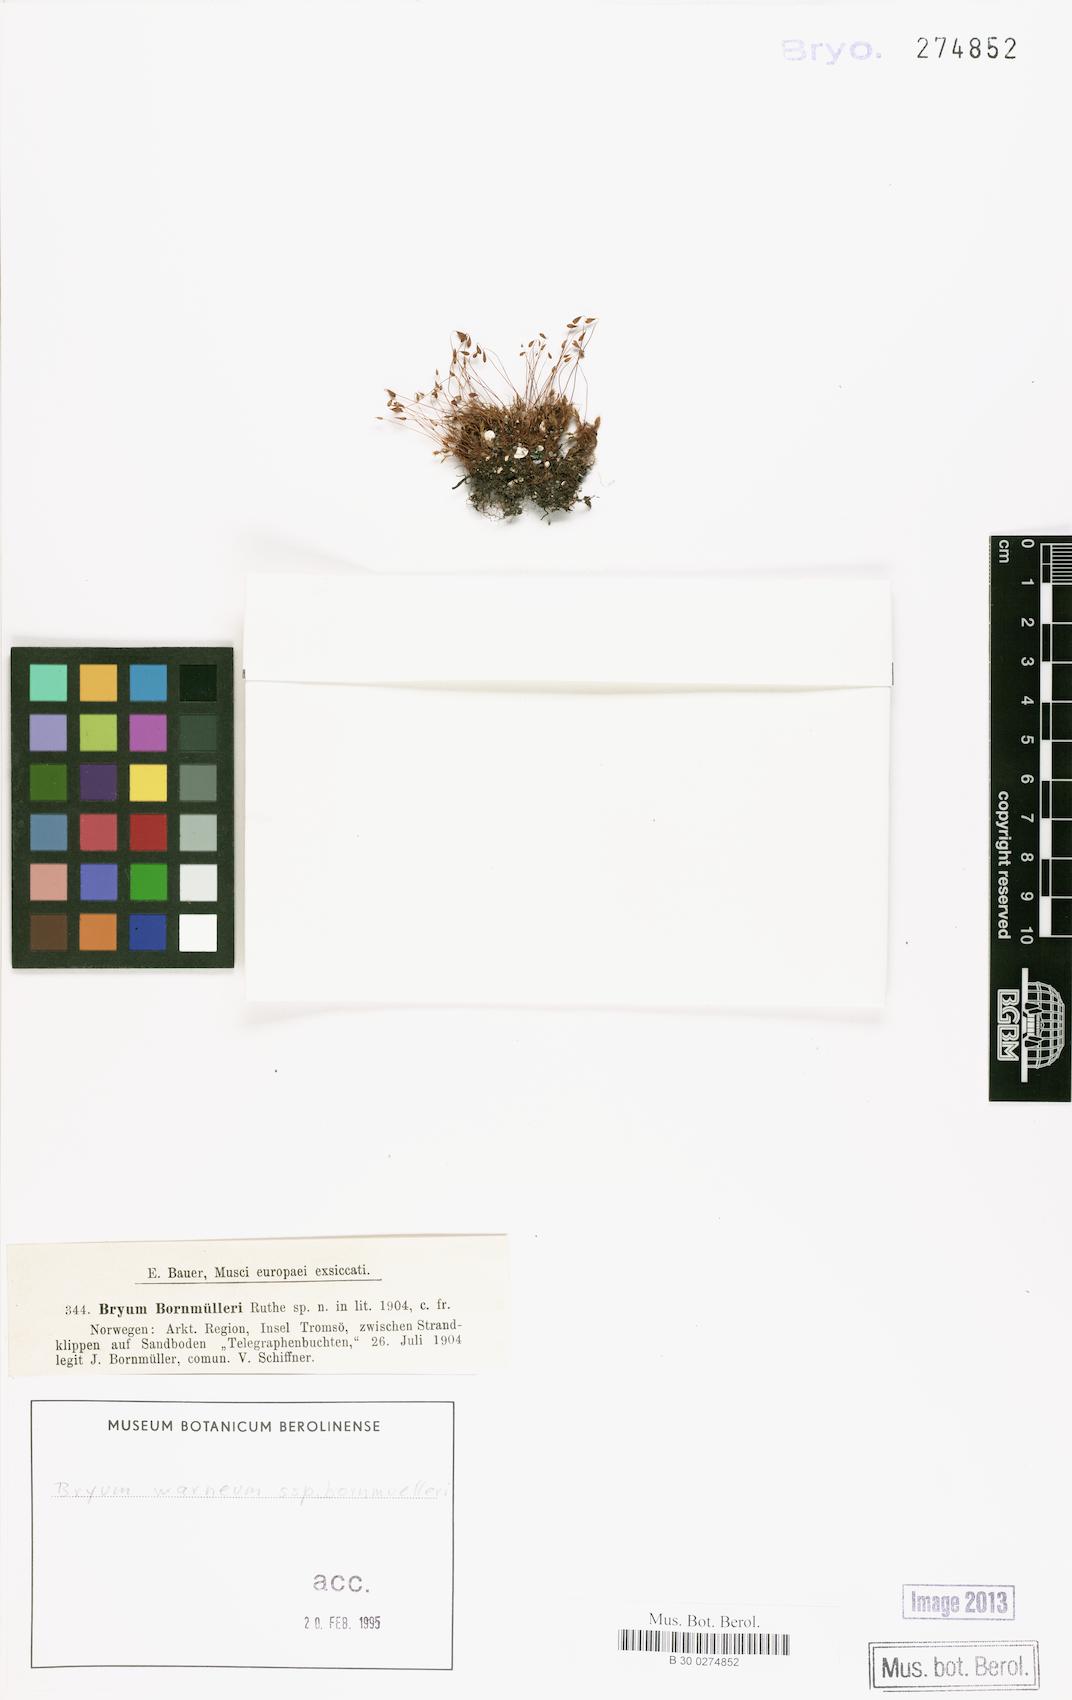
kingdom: Plantae
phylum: Bryophyta
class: Bryopsida
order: Bryales
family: Bryaceae
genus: Ptychostomum
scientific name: Ptychostomum warneum
